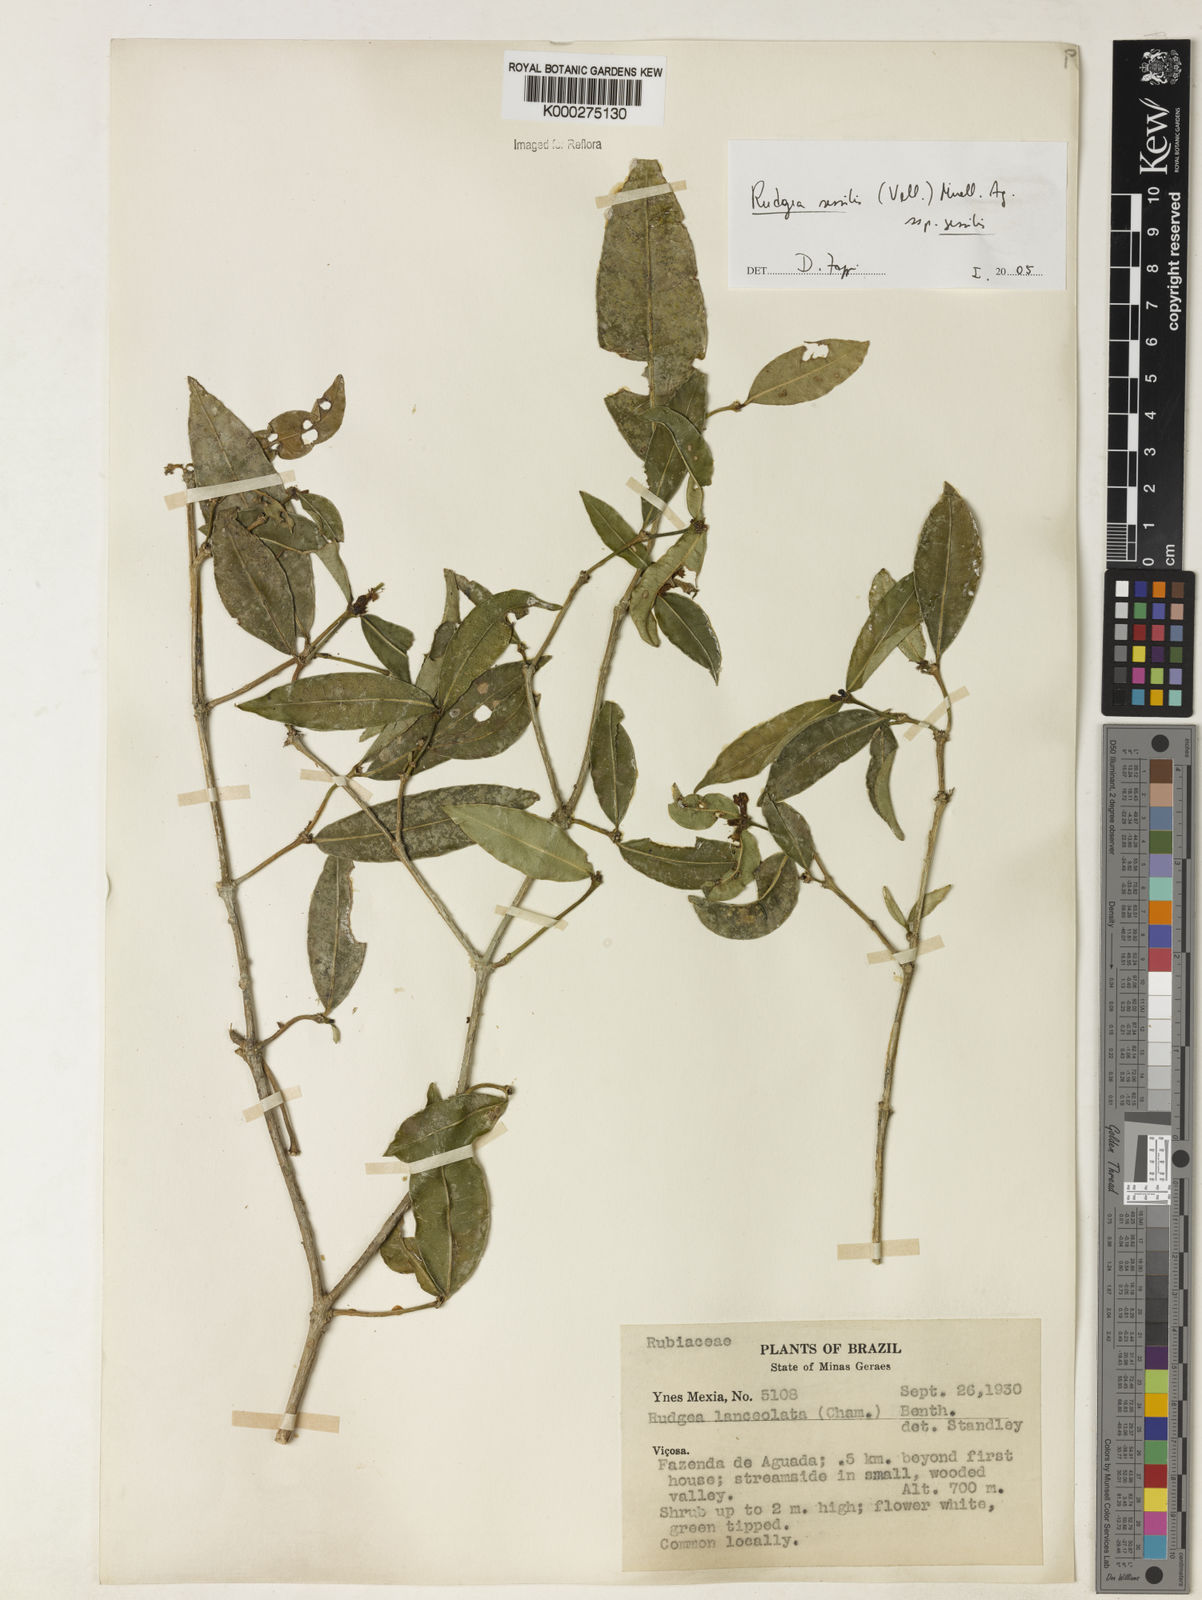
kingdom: Plantae
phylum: Tracheophyta
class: Magnoliopsida
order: Gentianales
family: Rubiaceae
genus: Rudgea
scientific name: Rudgea sessilis
